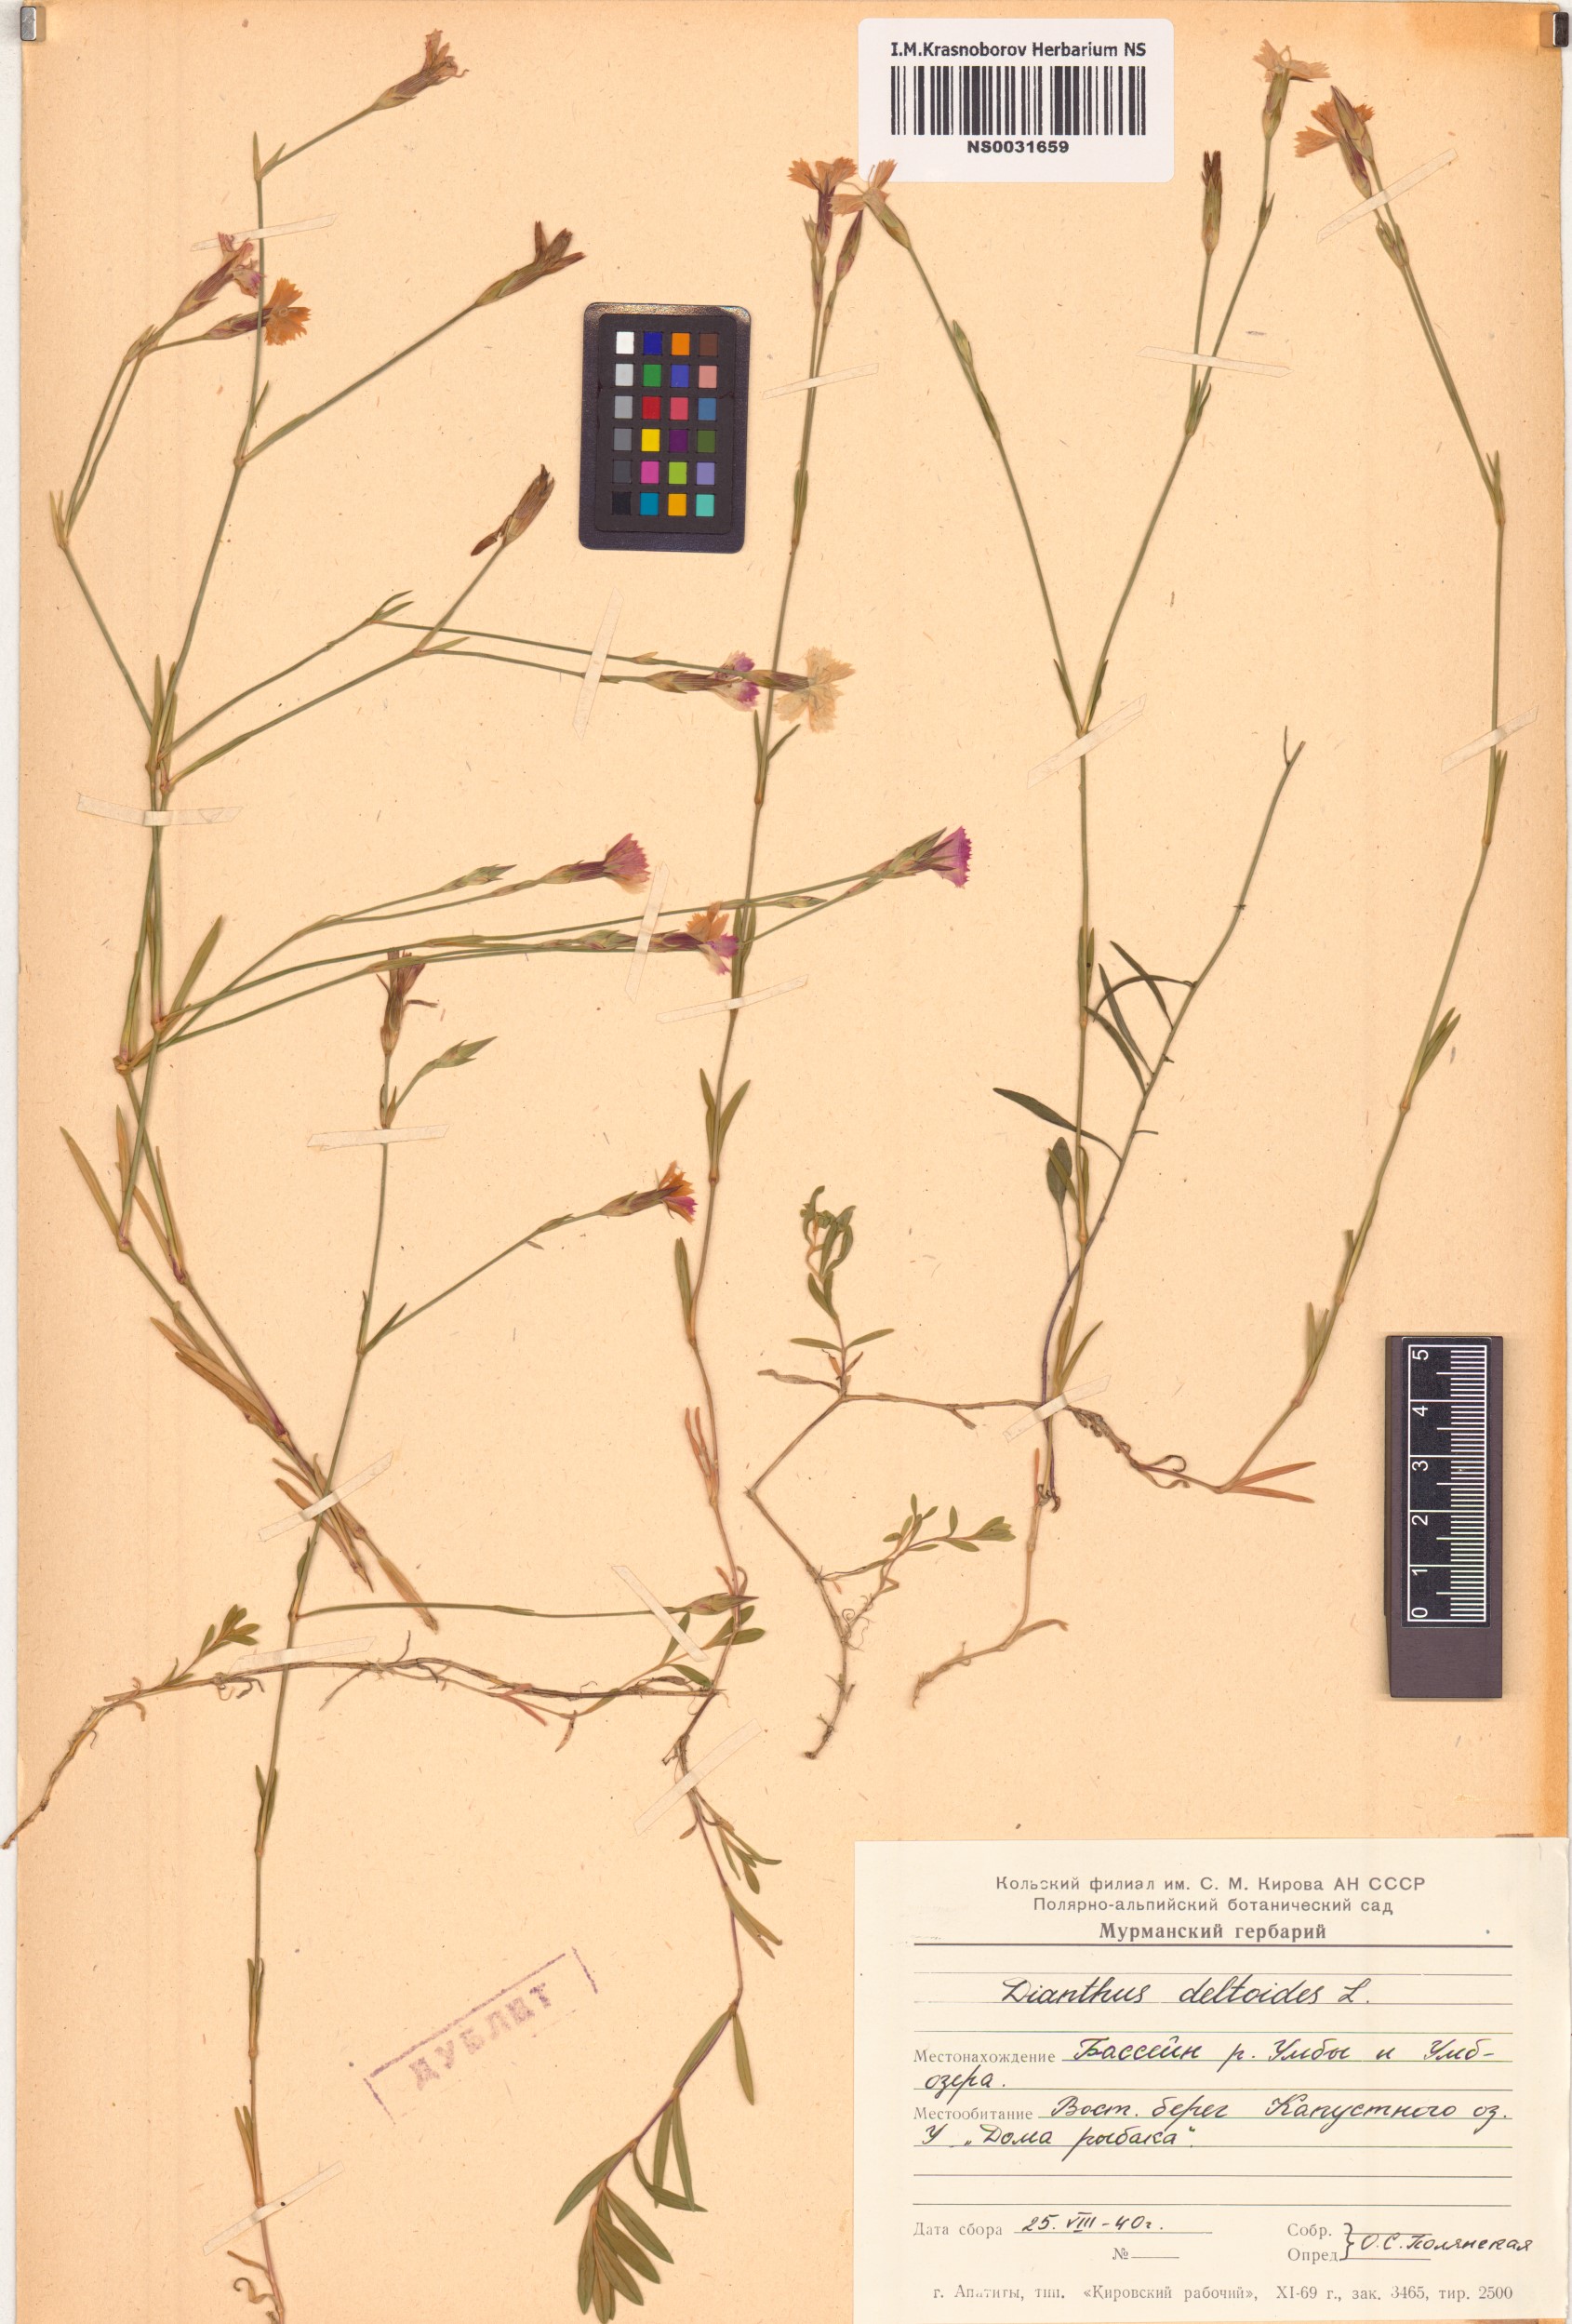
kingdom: Plantae
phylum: Tracheophyta
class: Magnoliopsida
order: Caryophyllales
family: Caryophyllaceae
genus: Dianthus
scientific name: Dianthus deltoides
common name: Maiden pink
